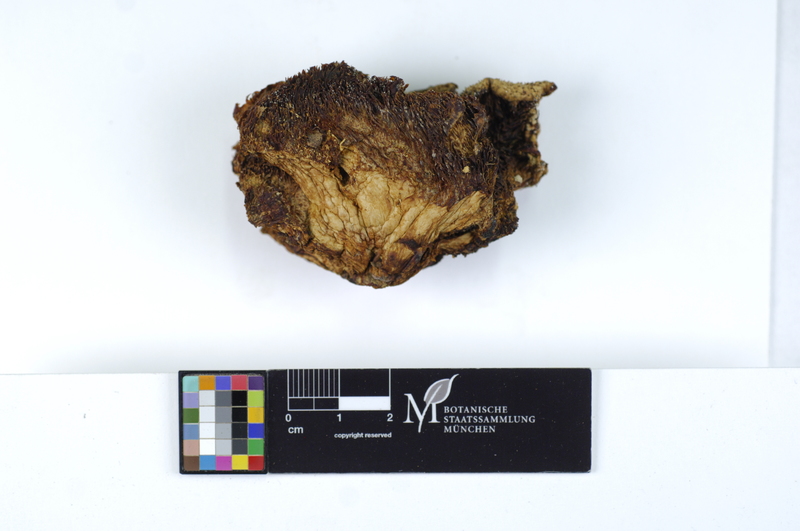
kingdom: Plantae
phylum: Tracheophyta
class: Magnoliopsida
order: Fagales
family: Fagaceae
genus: Fagus
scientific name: Fagus sylvatica
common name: Beech
